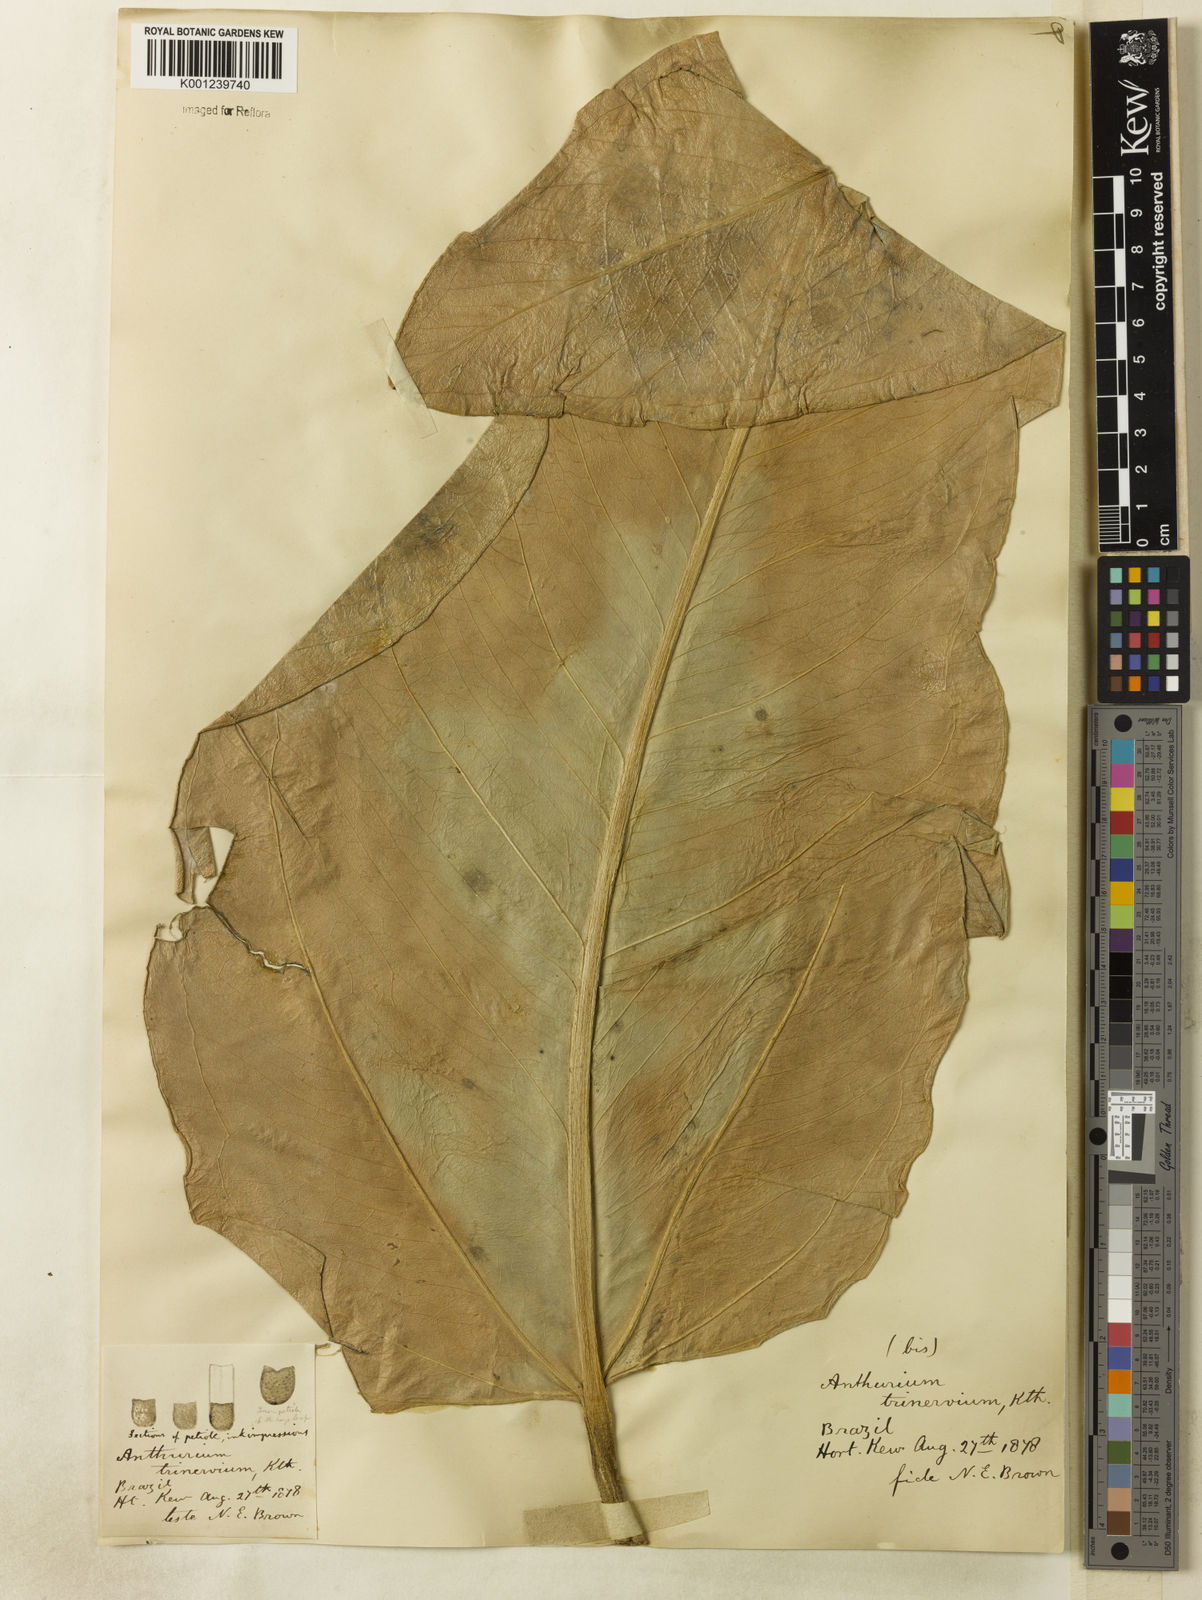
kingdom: Plantae
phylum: Tracheophyta
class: Liliopsida
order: Alismatales
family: Araceae
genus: Anthurium
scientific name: Anthurium trinervium
